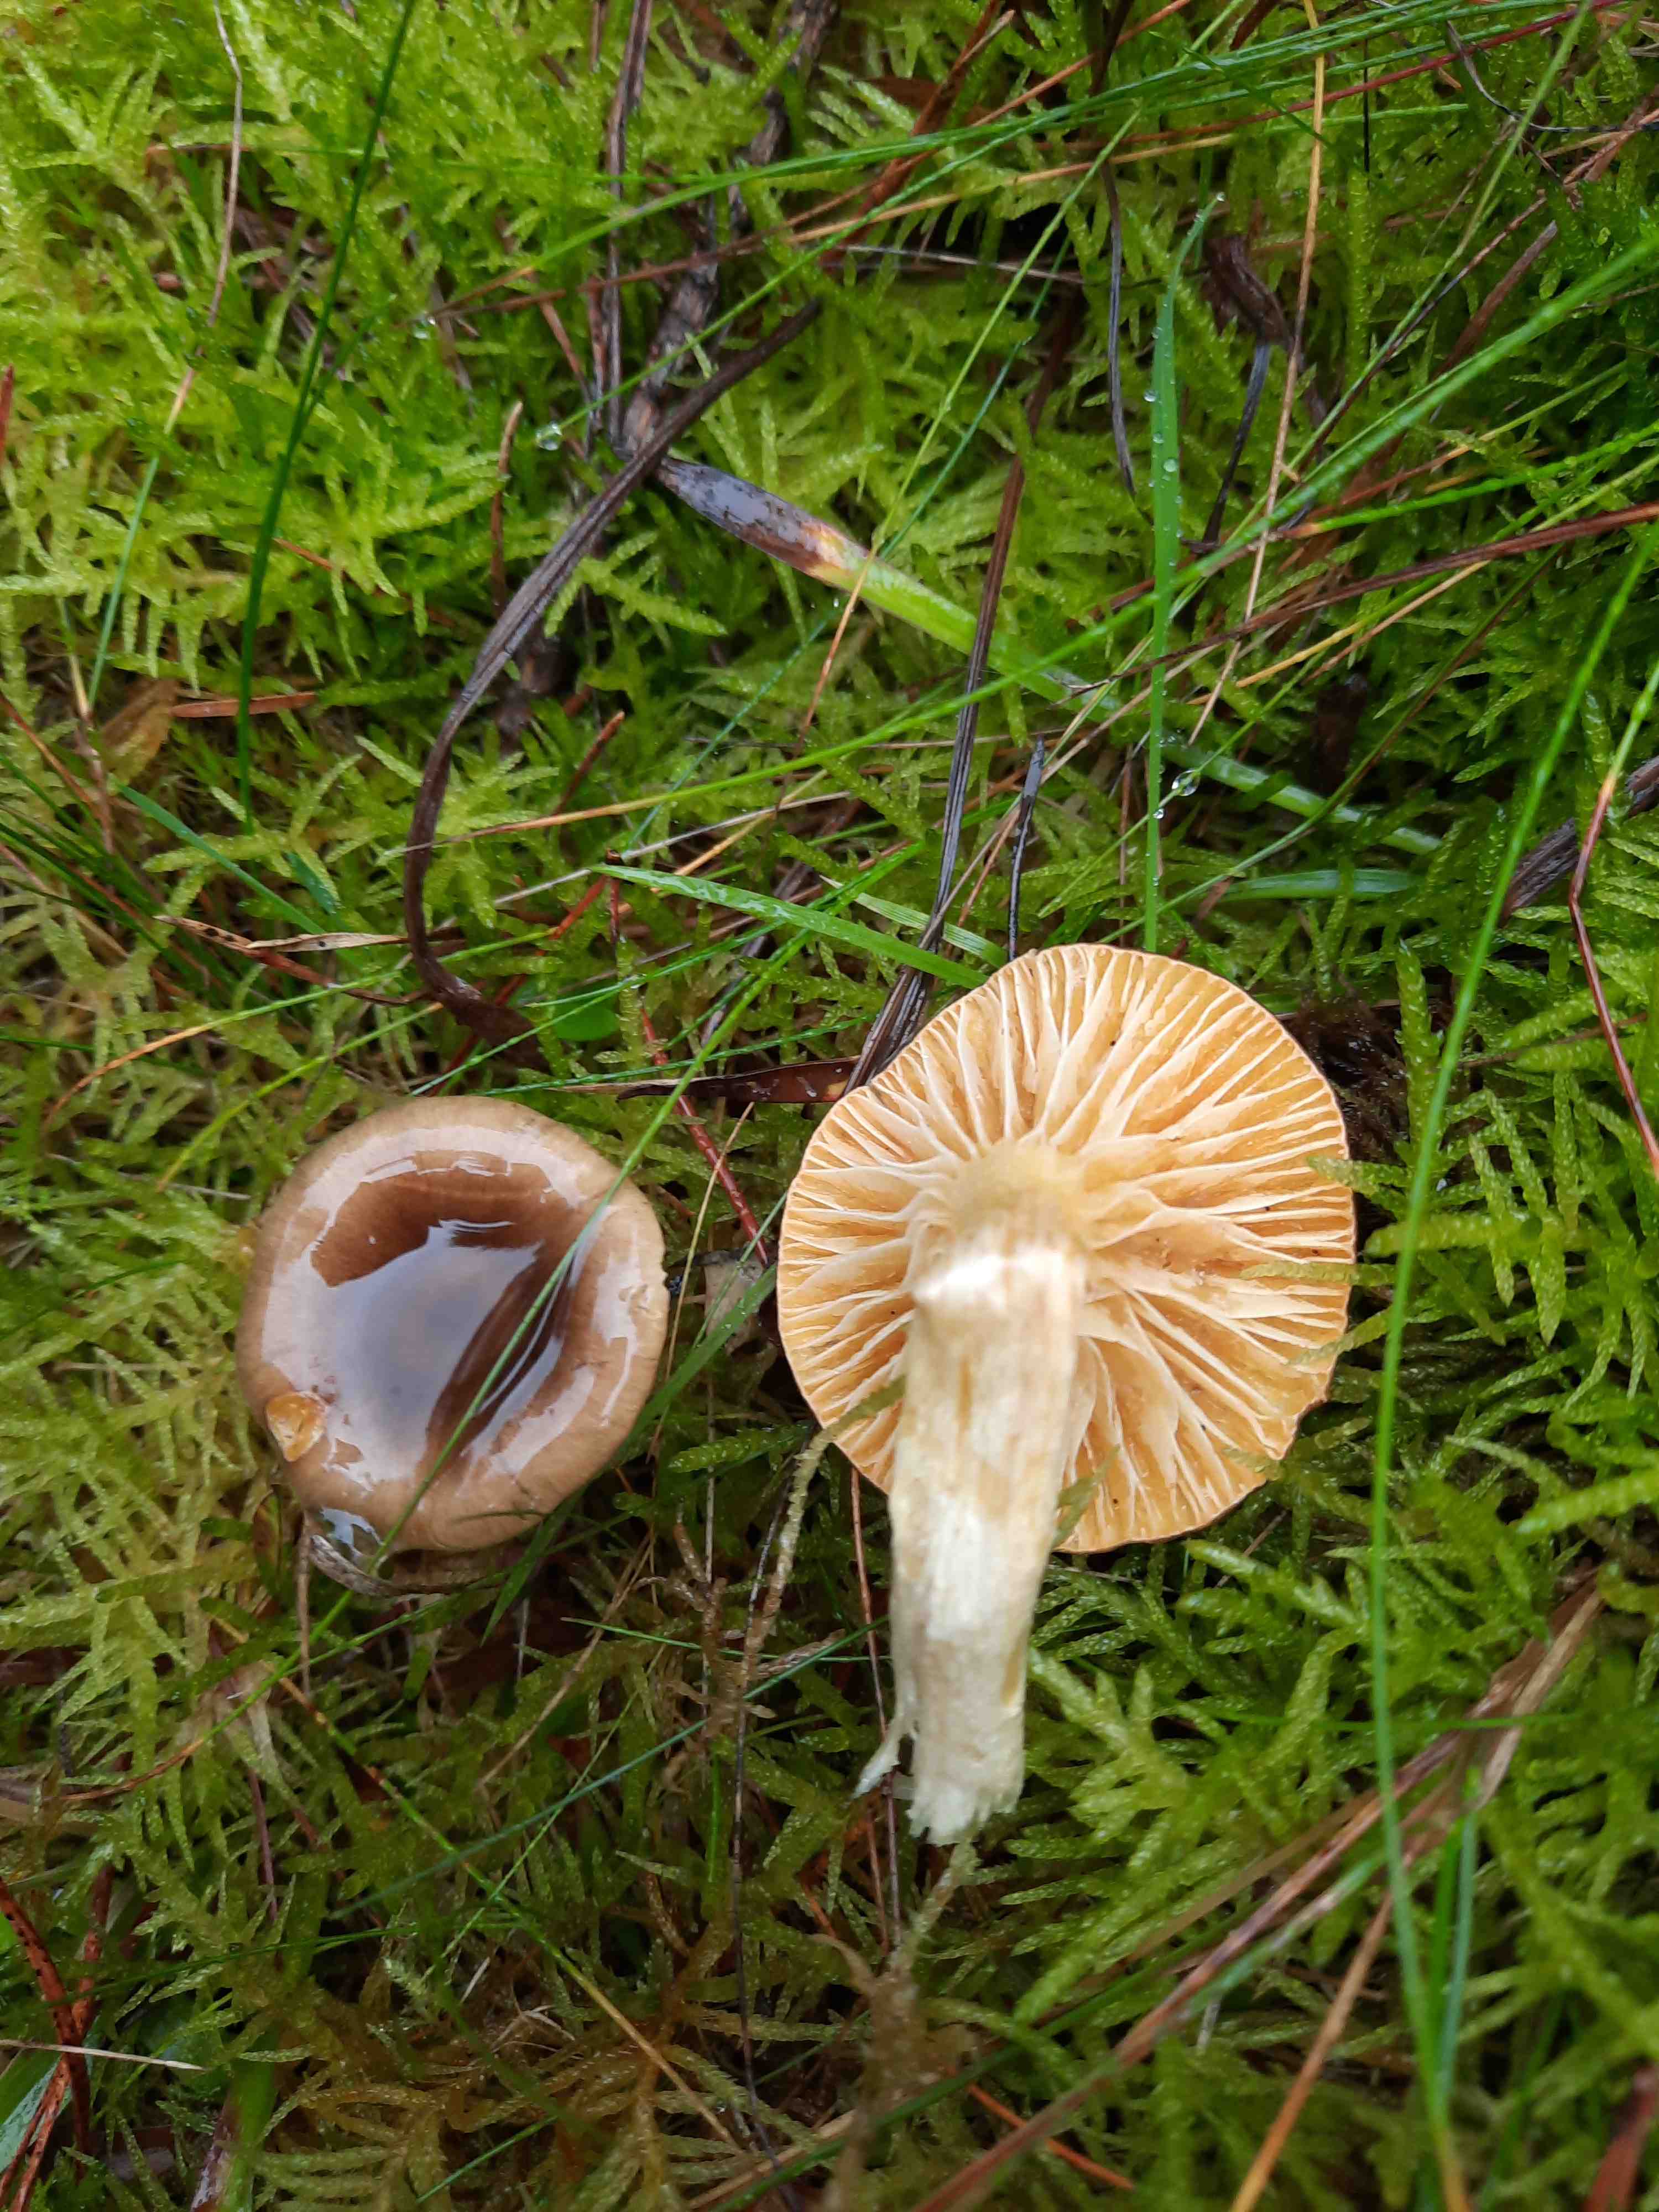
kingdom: Fungi
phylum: Basidiomycota
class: Agaricomycetes
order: Agaricales
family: Hygrophoraceae
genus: Hygrophorus
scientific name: Hygrophorus hypothejus
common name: frost-sneglehat
